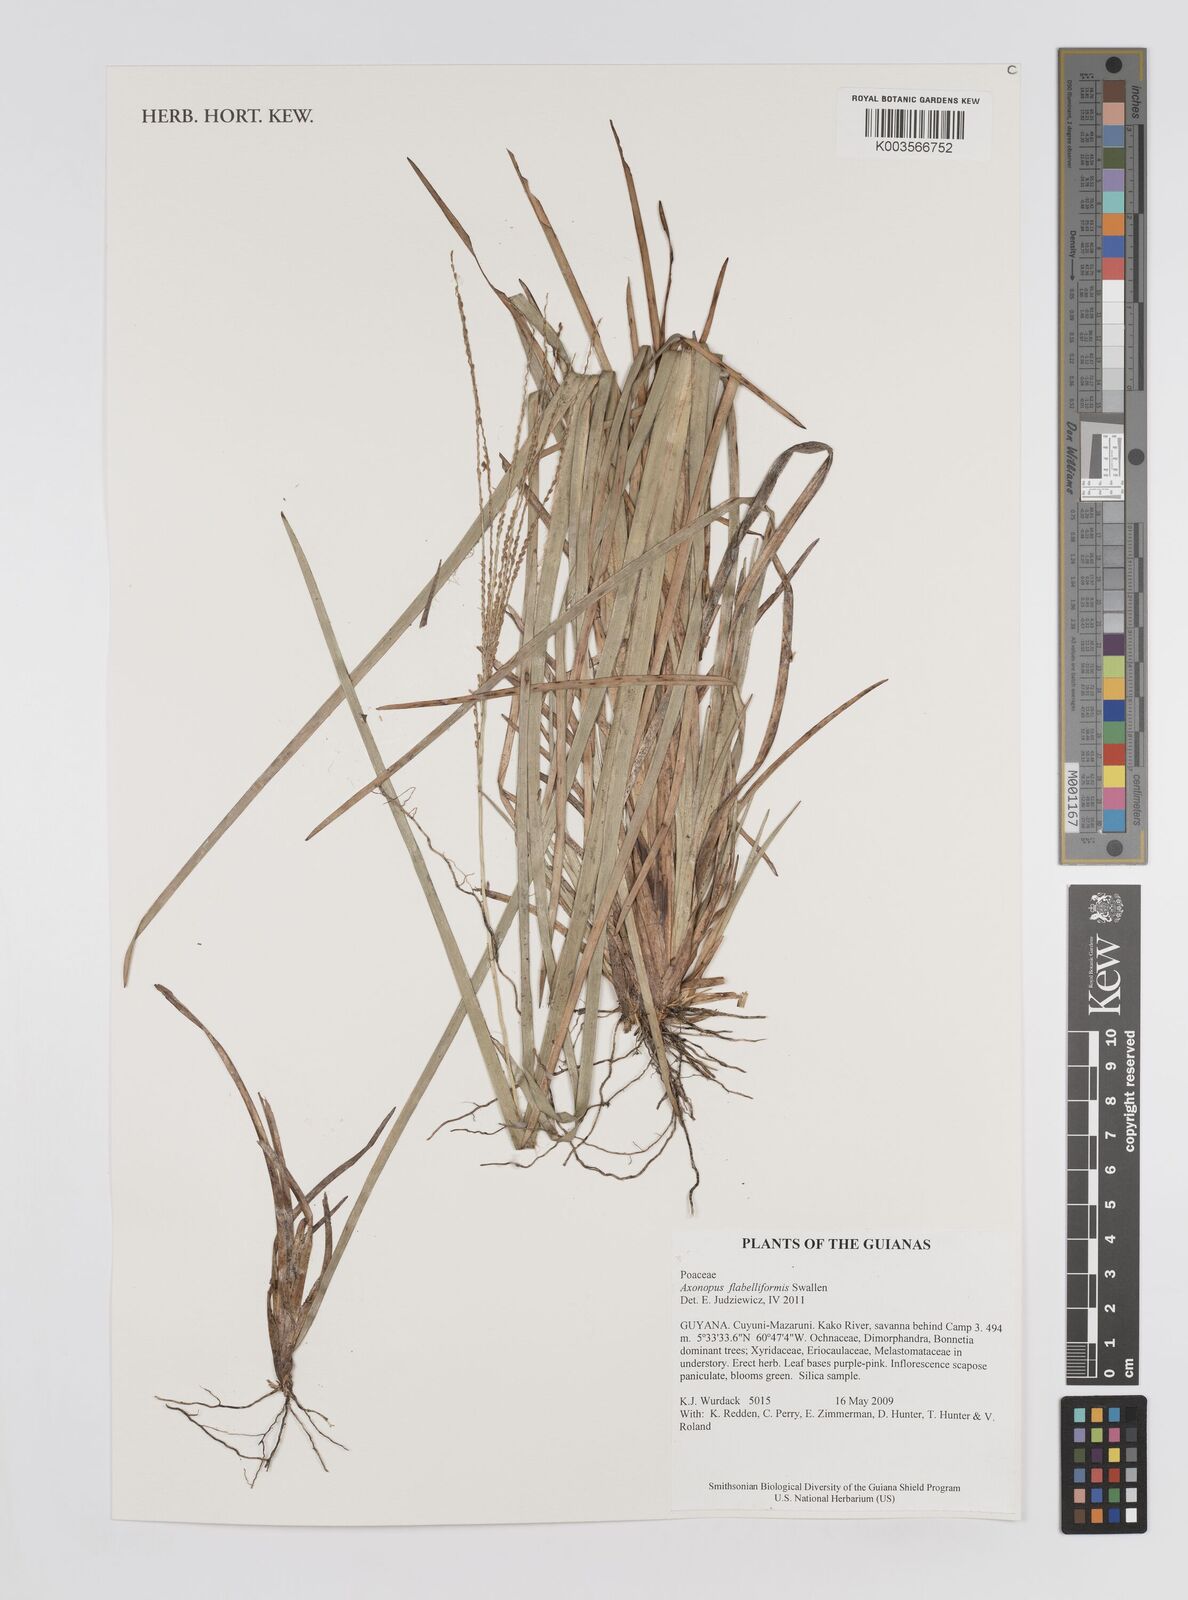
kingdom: Plantae
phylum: Tracheophyta
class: Liliopsida
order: Poales
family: Poaceae
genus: Axonopus
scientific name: Axonopus flabelliformis
